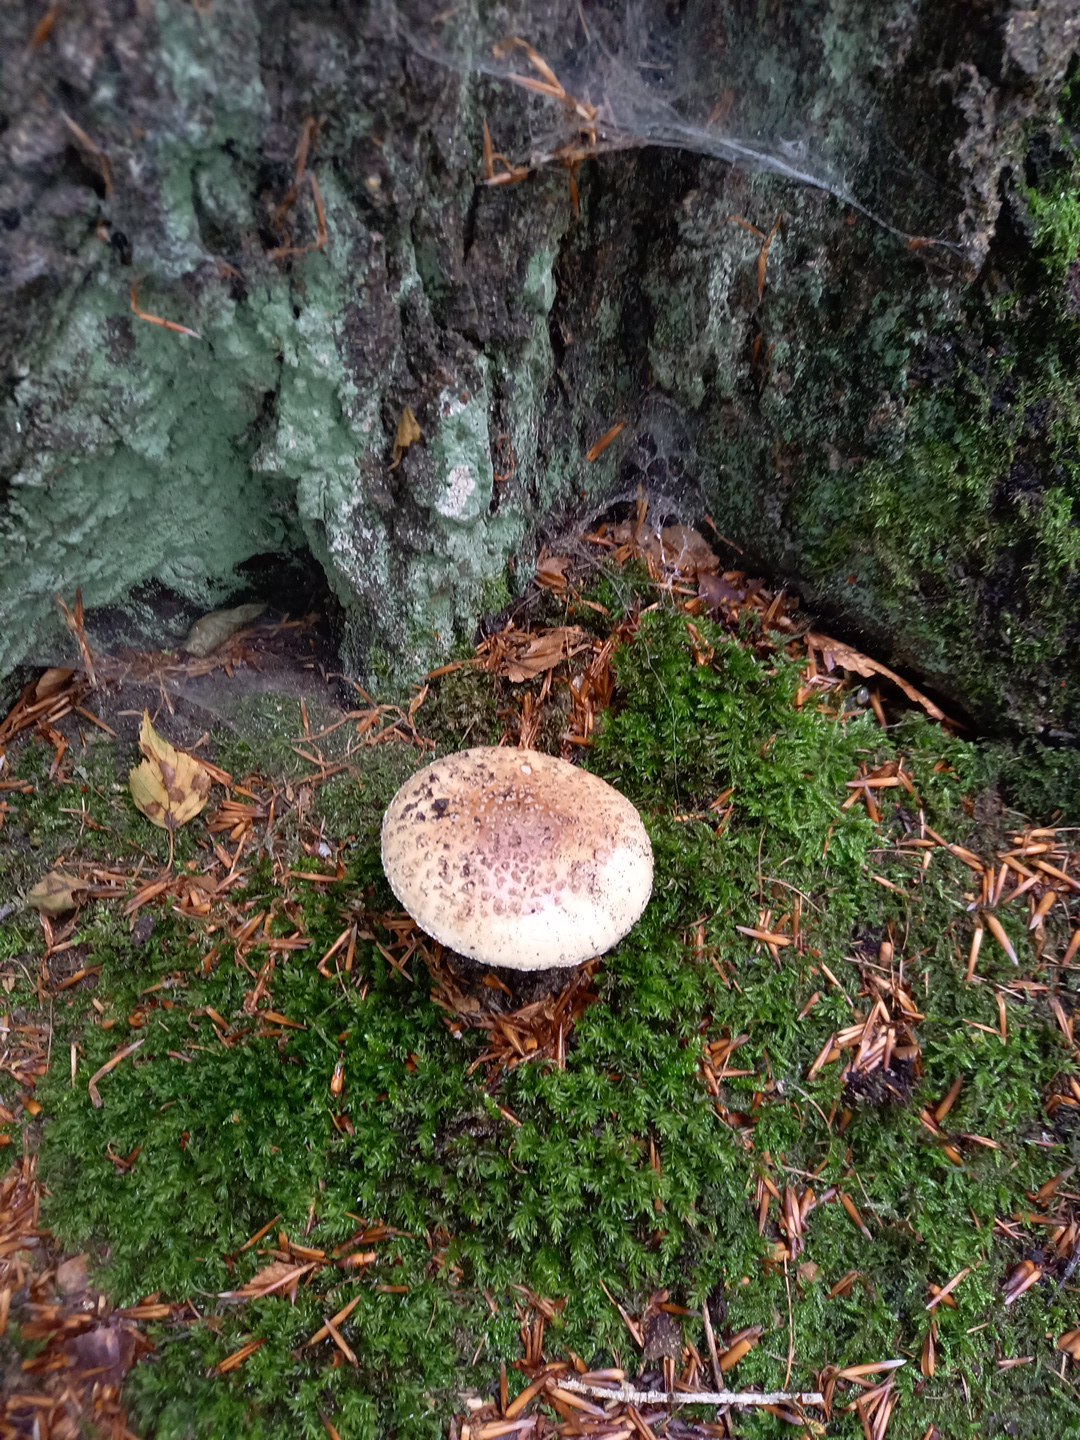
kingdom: Fungi
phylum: Basidiomycota
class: Agaricomycetes
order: Agaricales
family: Amanitaceae
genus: Amanita
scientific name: Amanita rubescens
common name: rødmende fluesvamp
